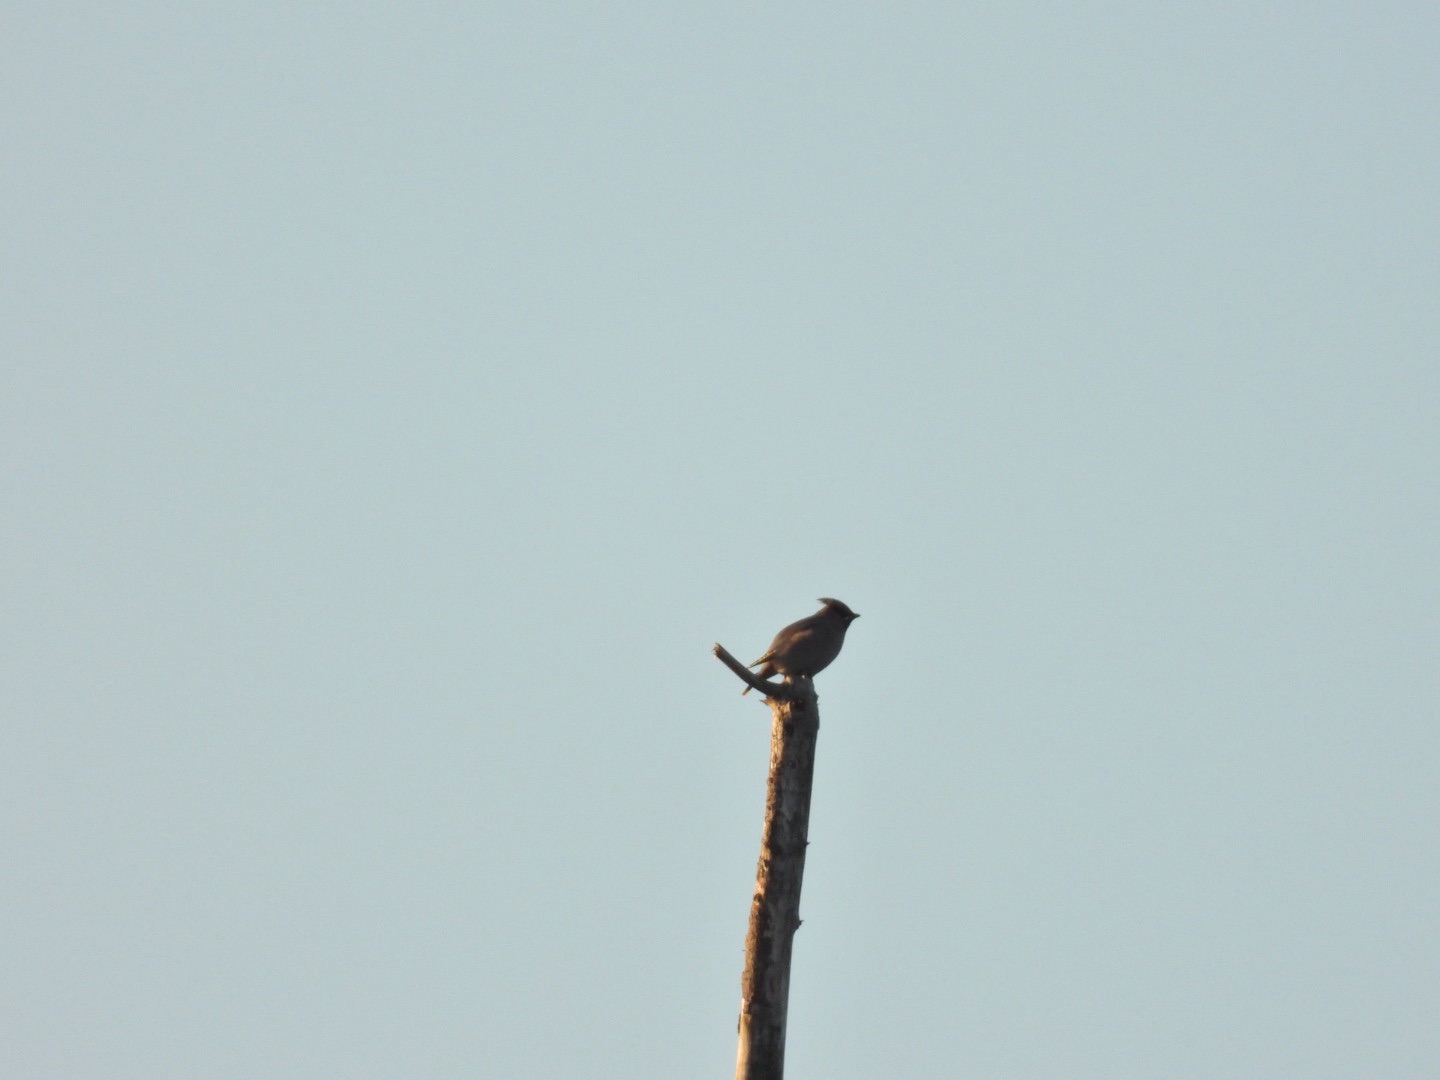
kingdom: Animalia
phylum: Chordata
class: Aves
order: Passeriformes
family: Bombycillidae
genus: Bombycilla
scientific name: Bombycilla garrulus
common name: Silkehale
